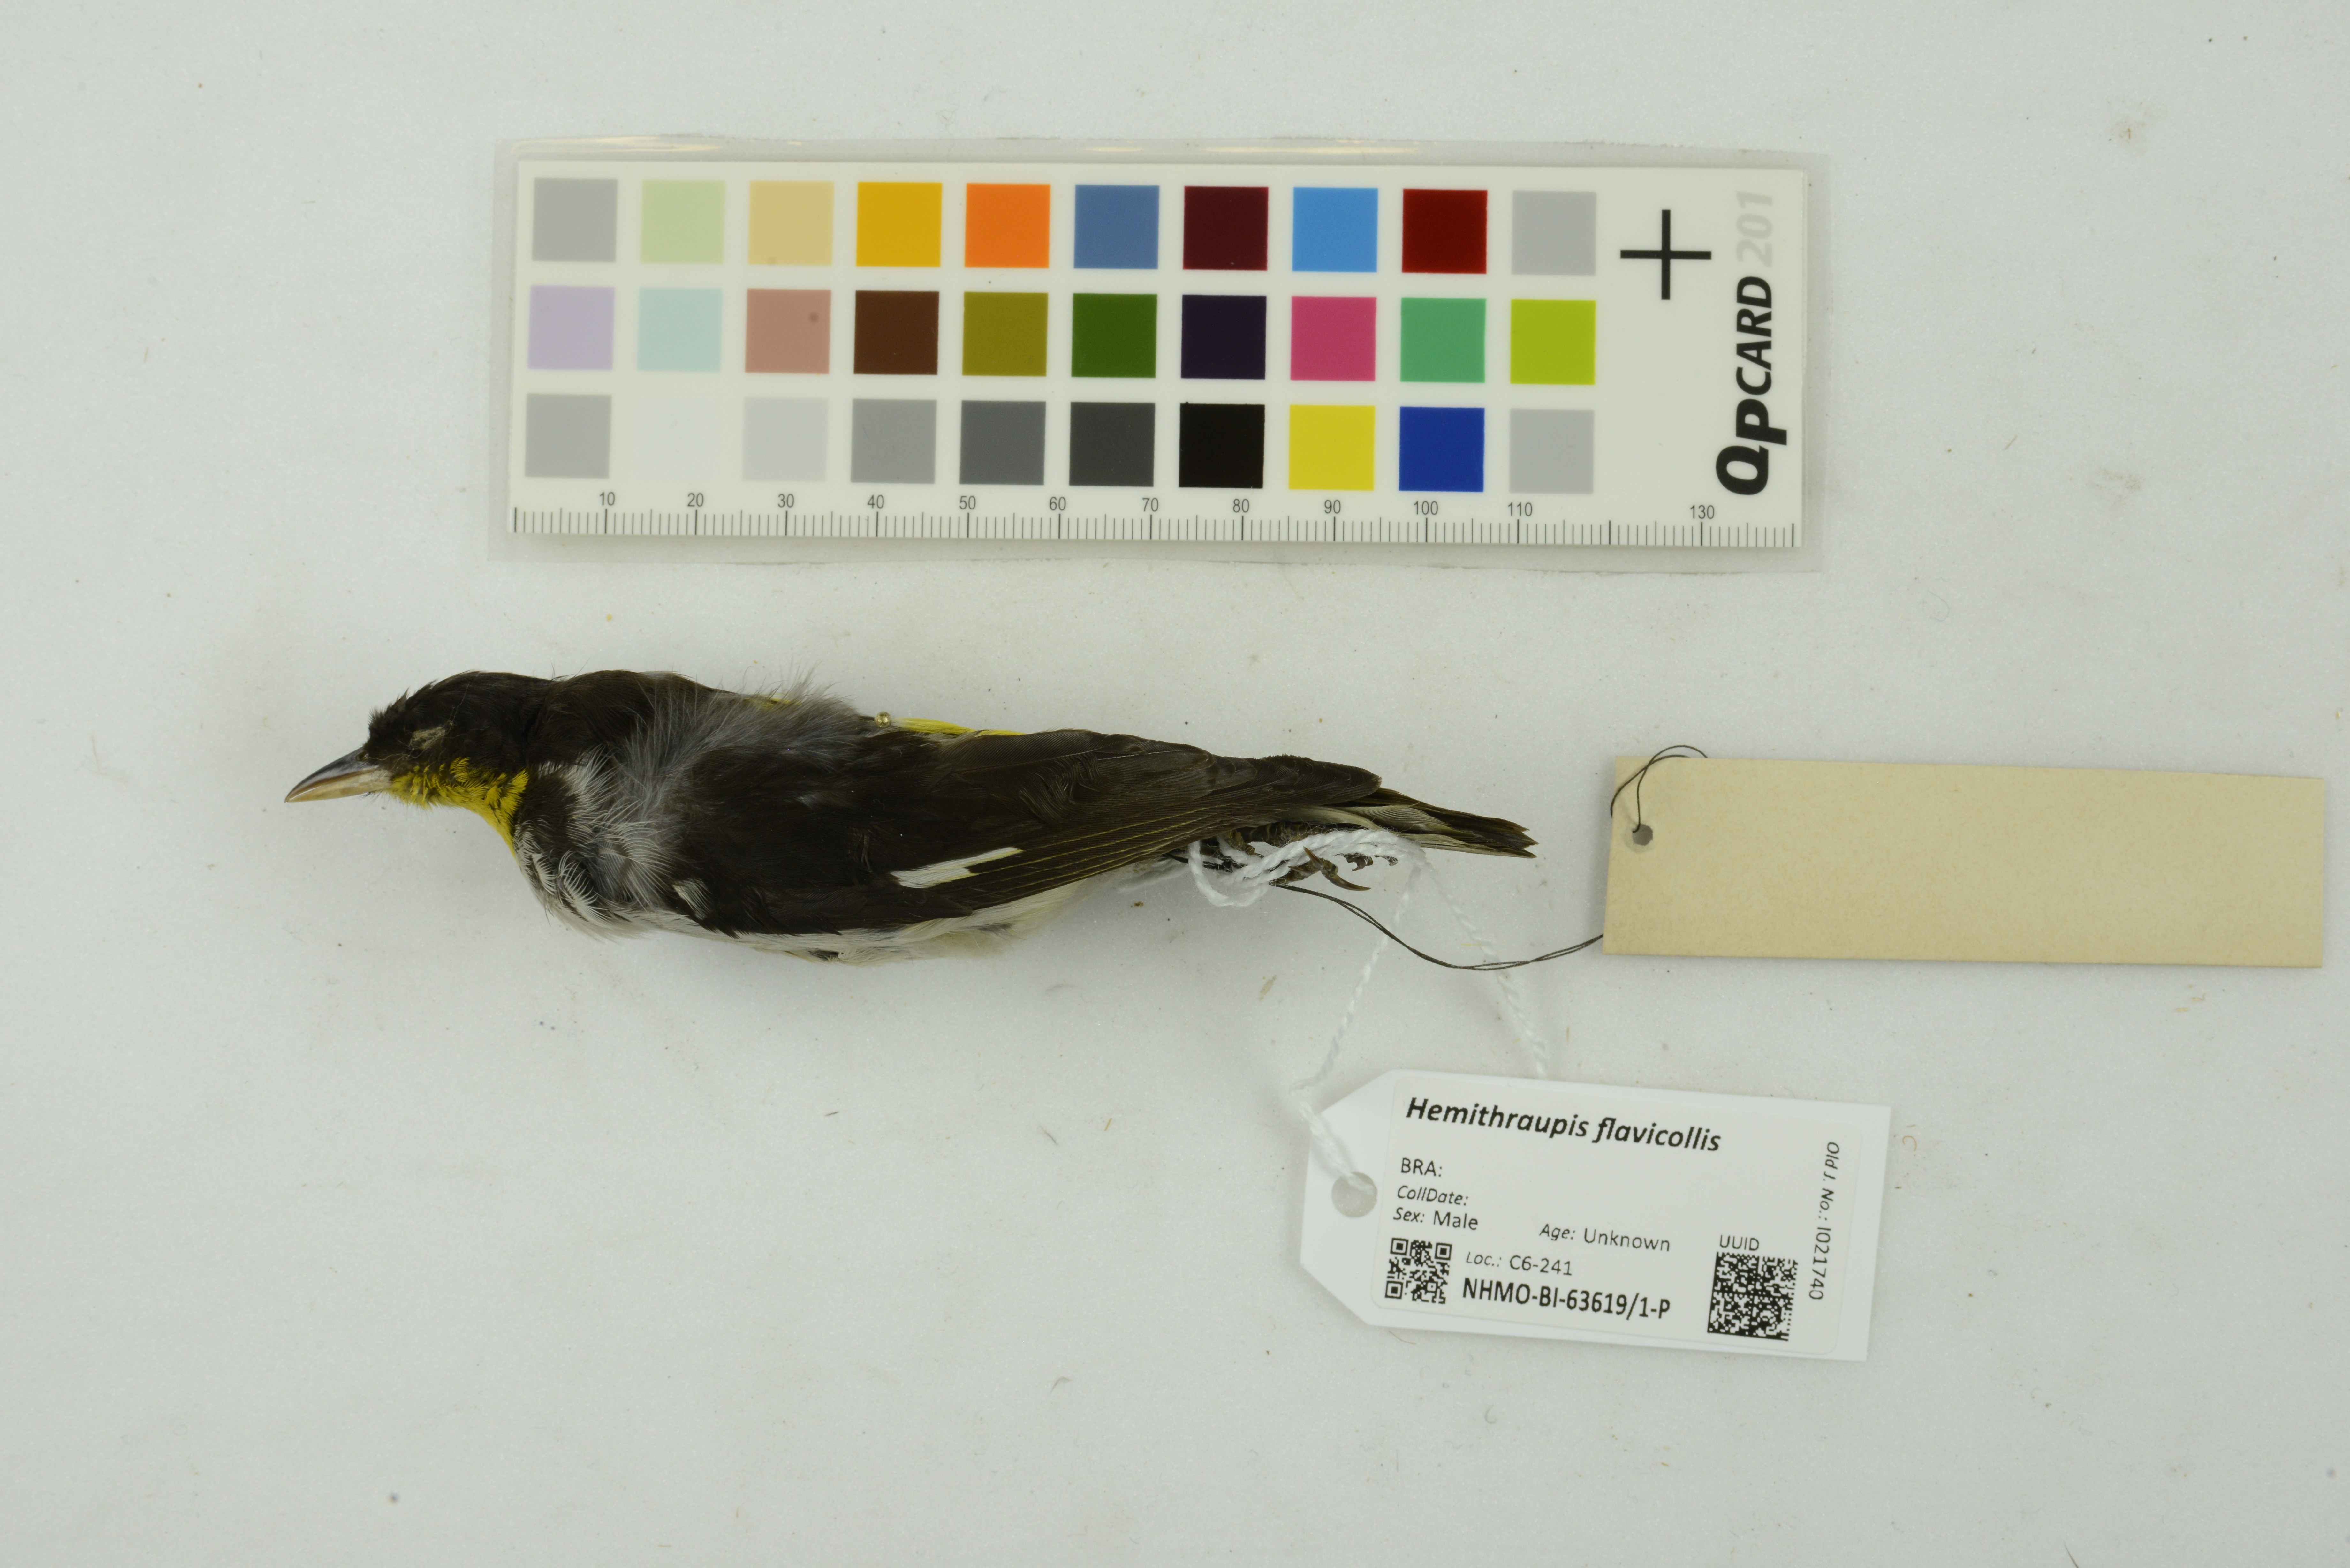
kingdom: Animalia
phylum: Chordata
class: Aves
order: Passeriformes
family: Thraupidae
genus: Hemithraupis
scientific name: Hemithraupis flavicollis
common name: Yellow-backed tanager
